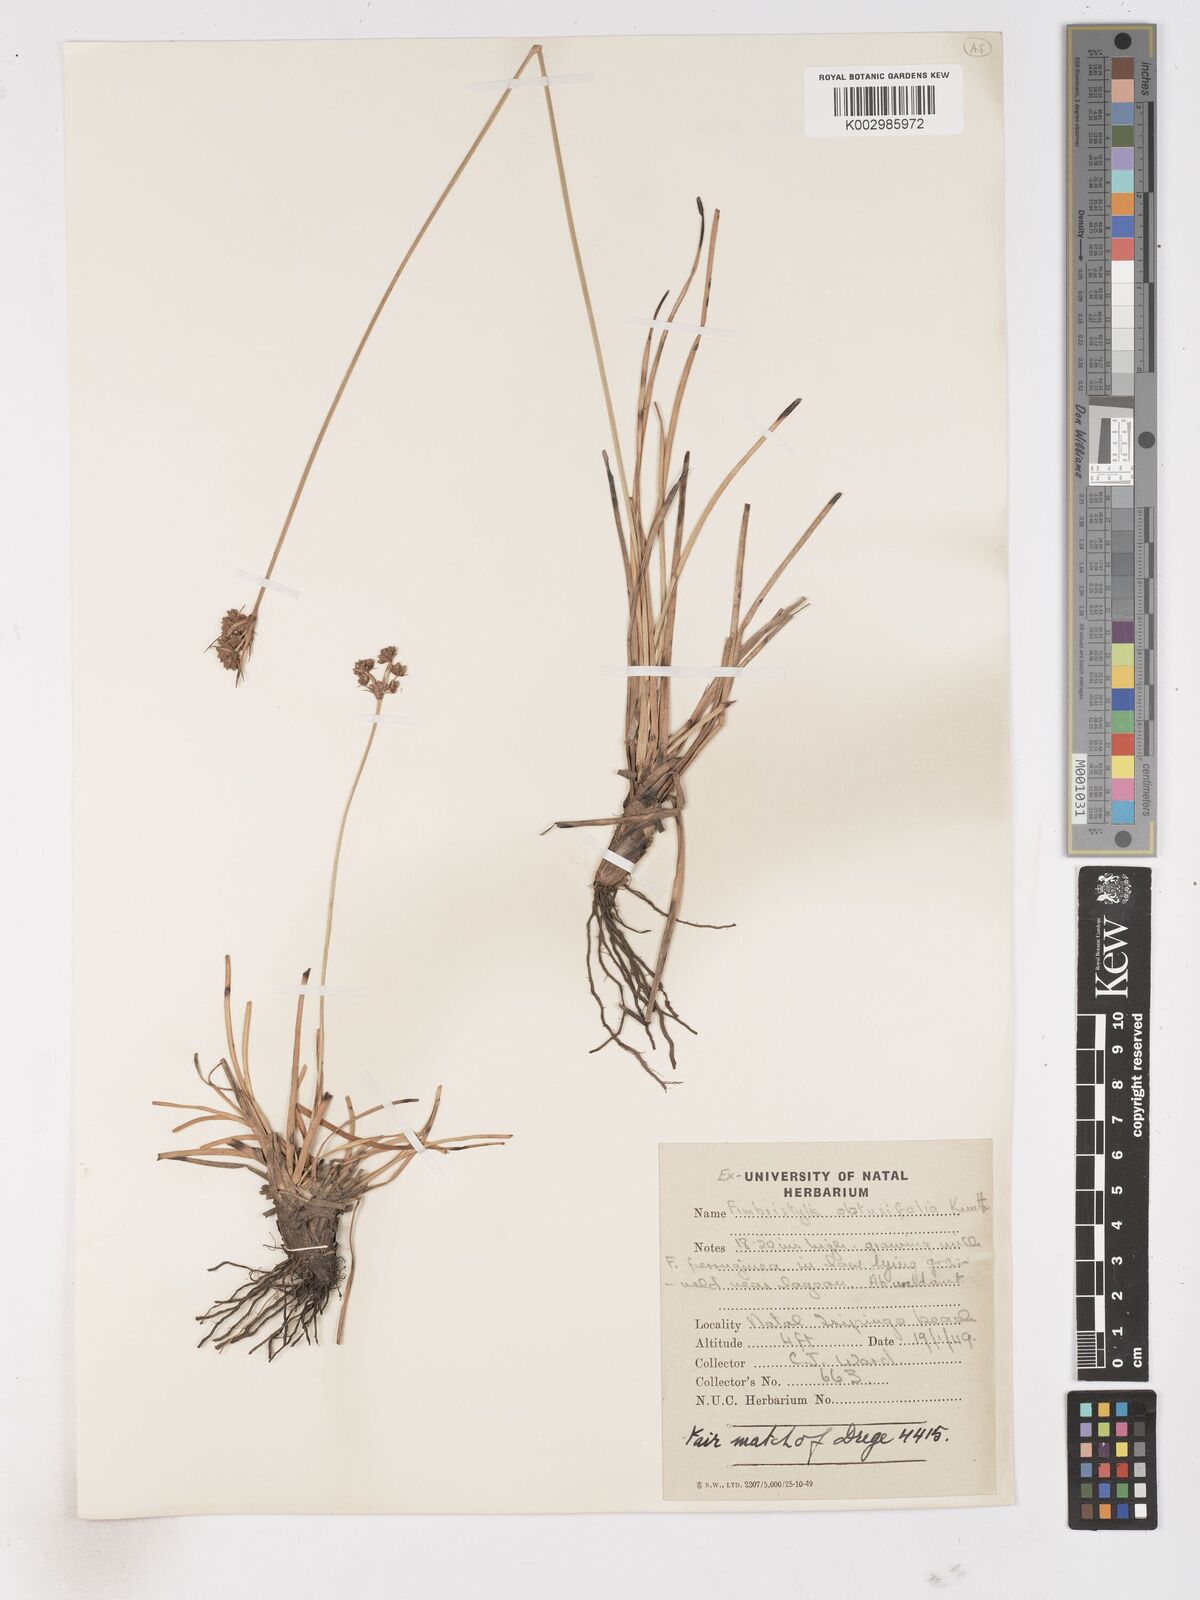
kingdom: Plantae
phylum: Tracheophyta
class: Liliopsida
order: Poales
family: Cyperaceae
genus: Fimbristylis
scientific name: Fimbristylis cymosa
